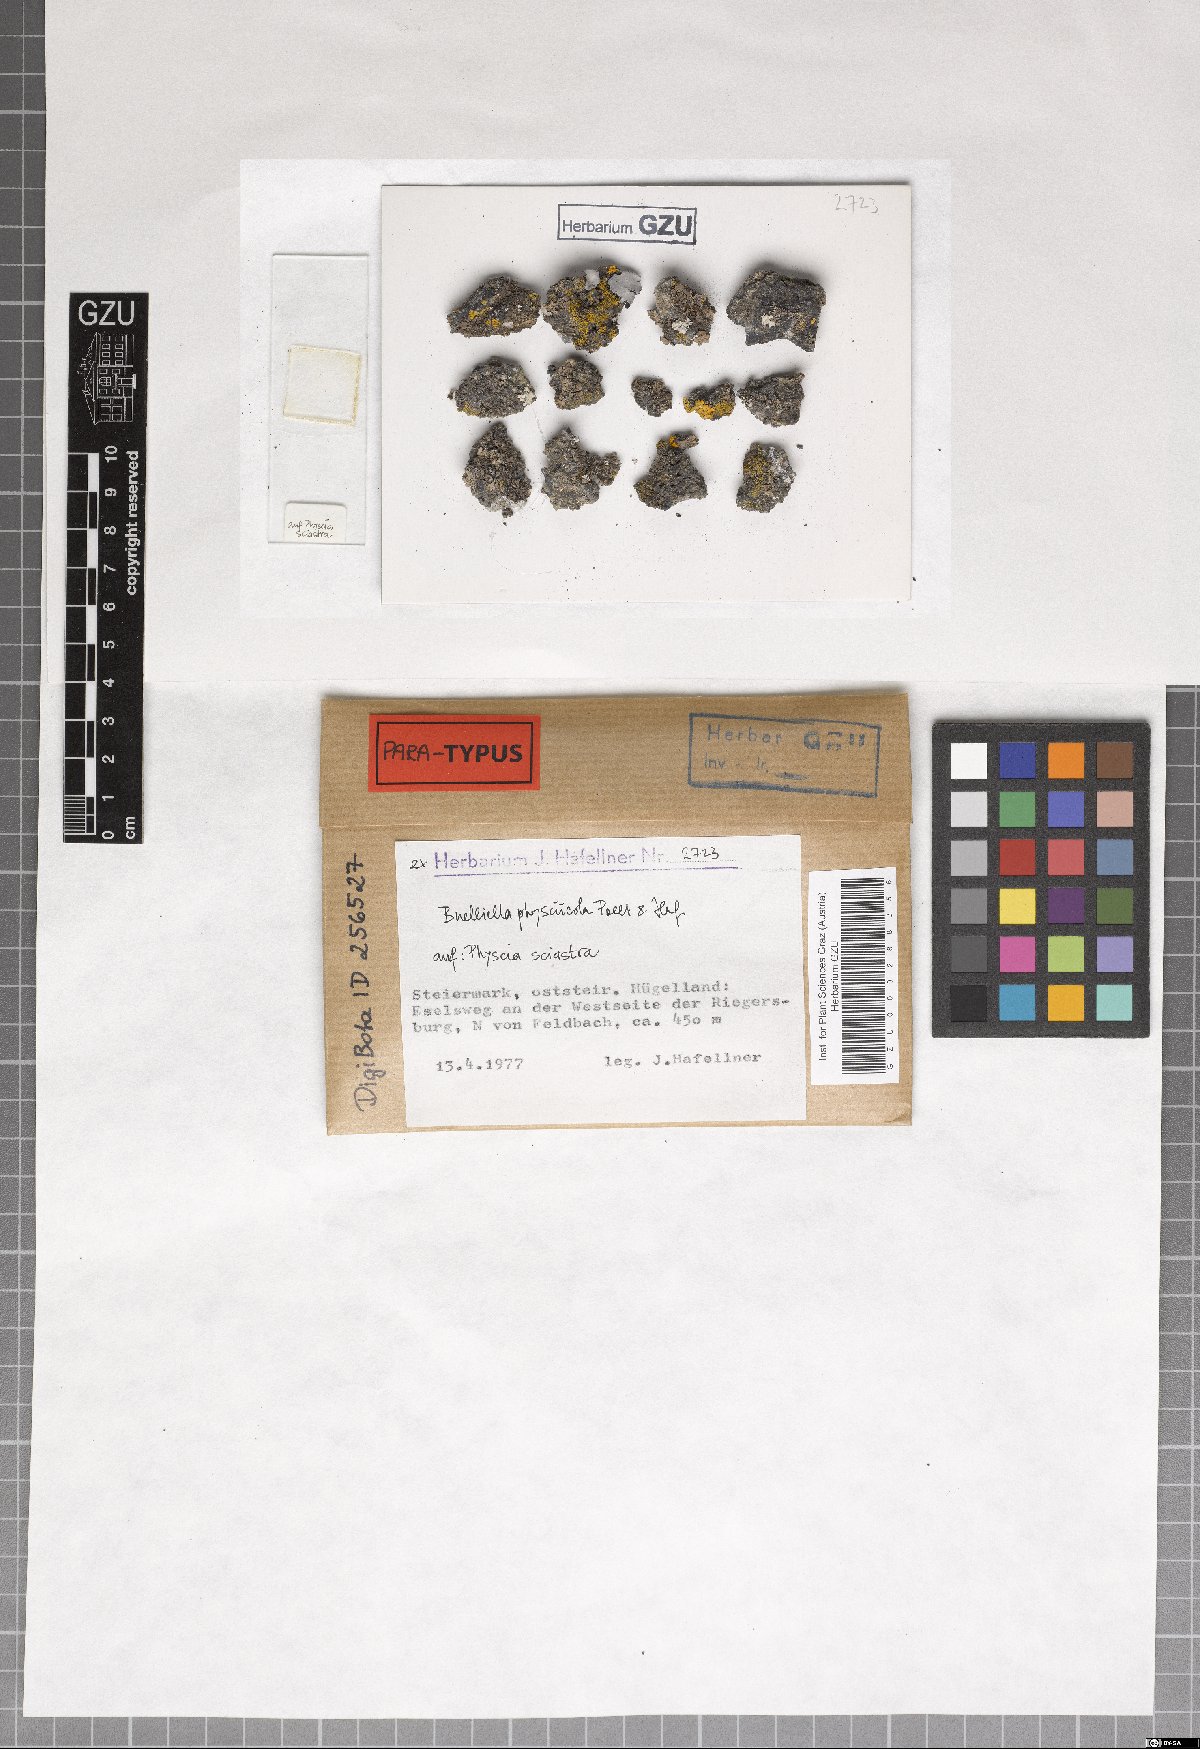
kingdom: Fungi
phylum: Ascomycota
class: Dothideomycetes
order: Dothideales
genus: Buelliella
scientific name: Buelliella physciicola
